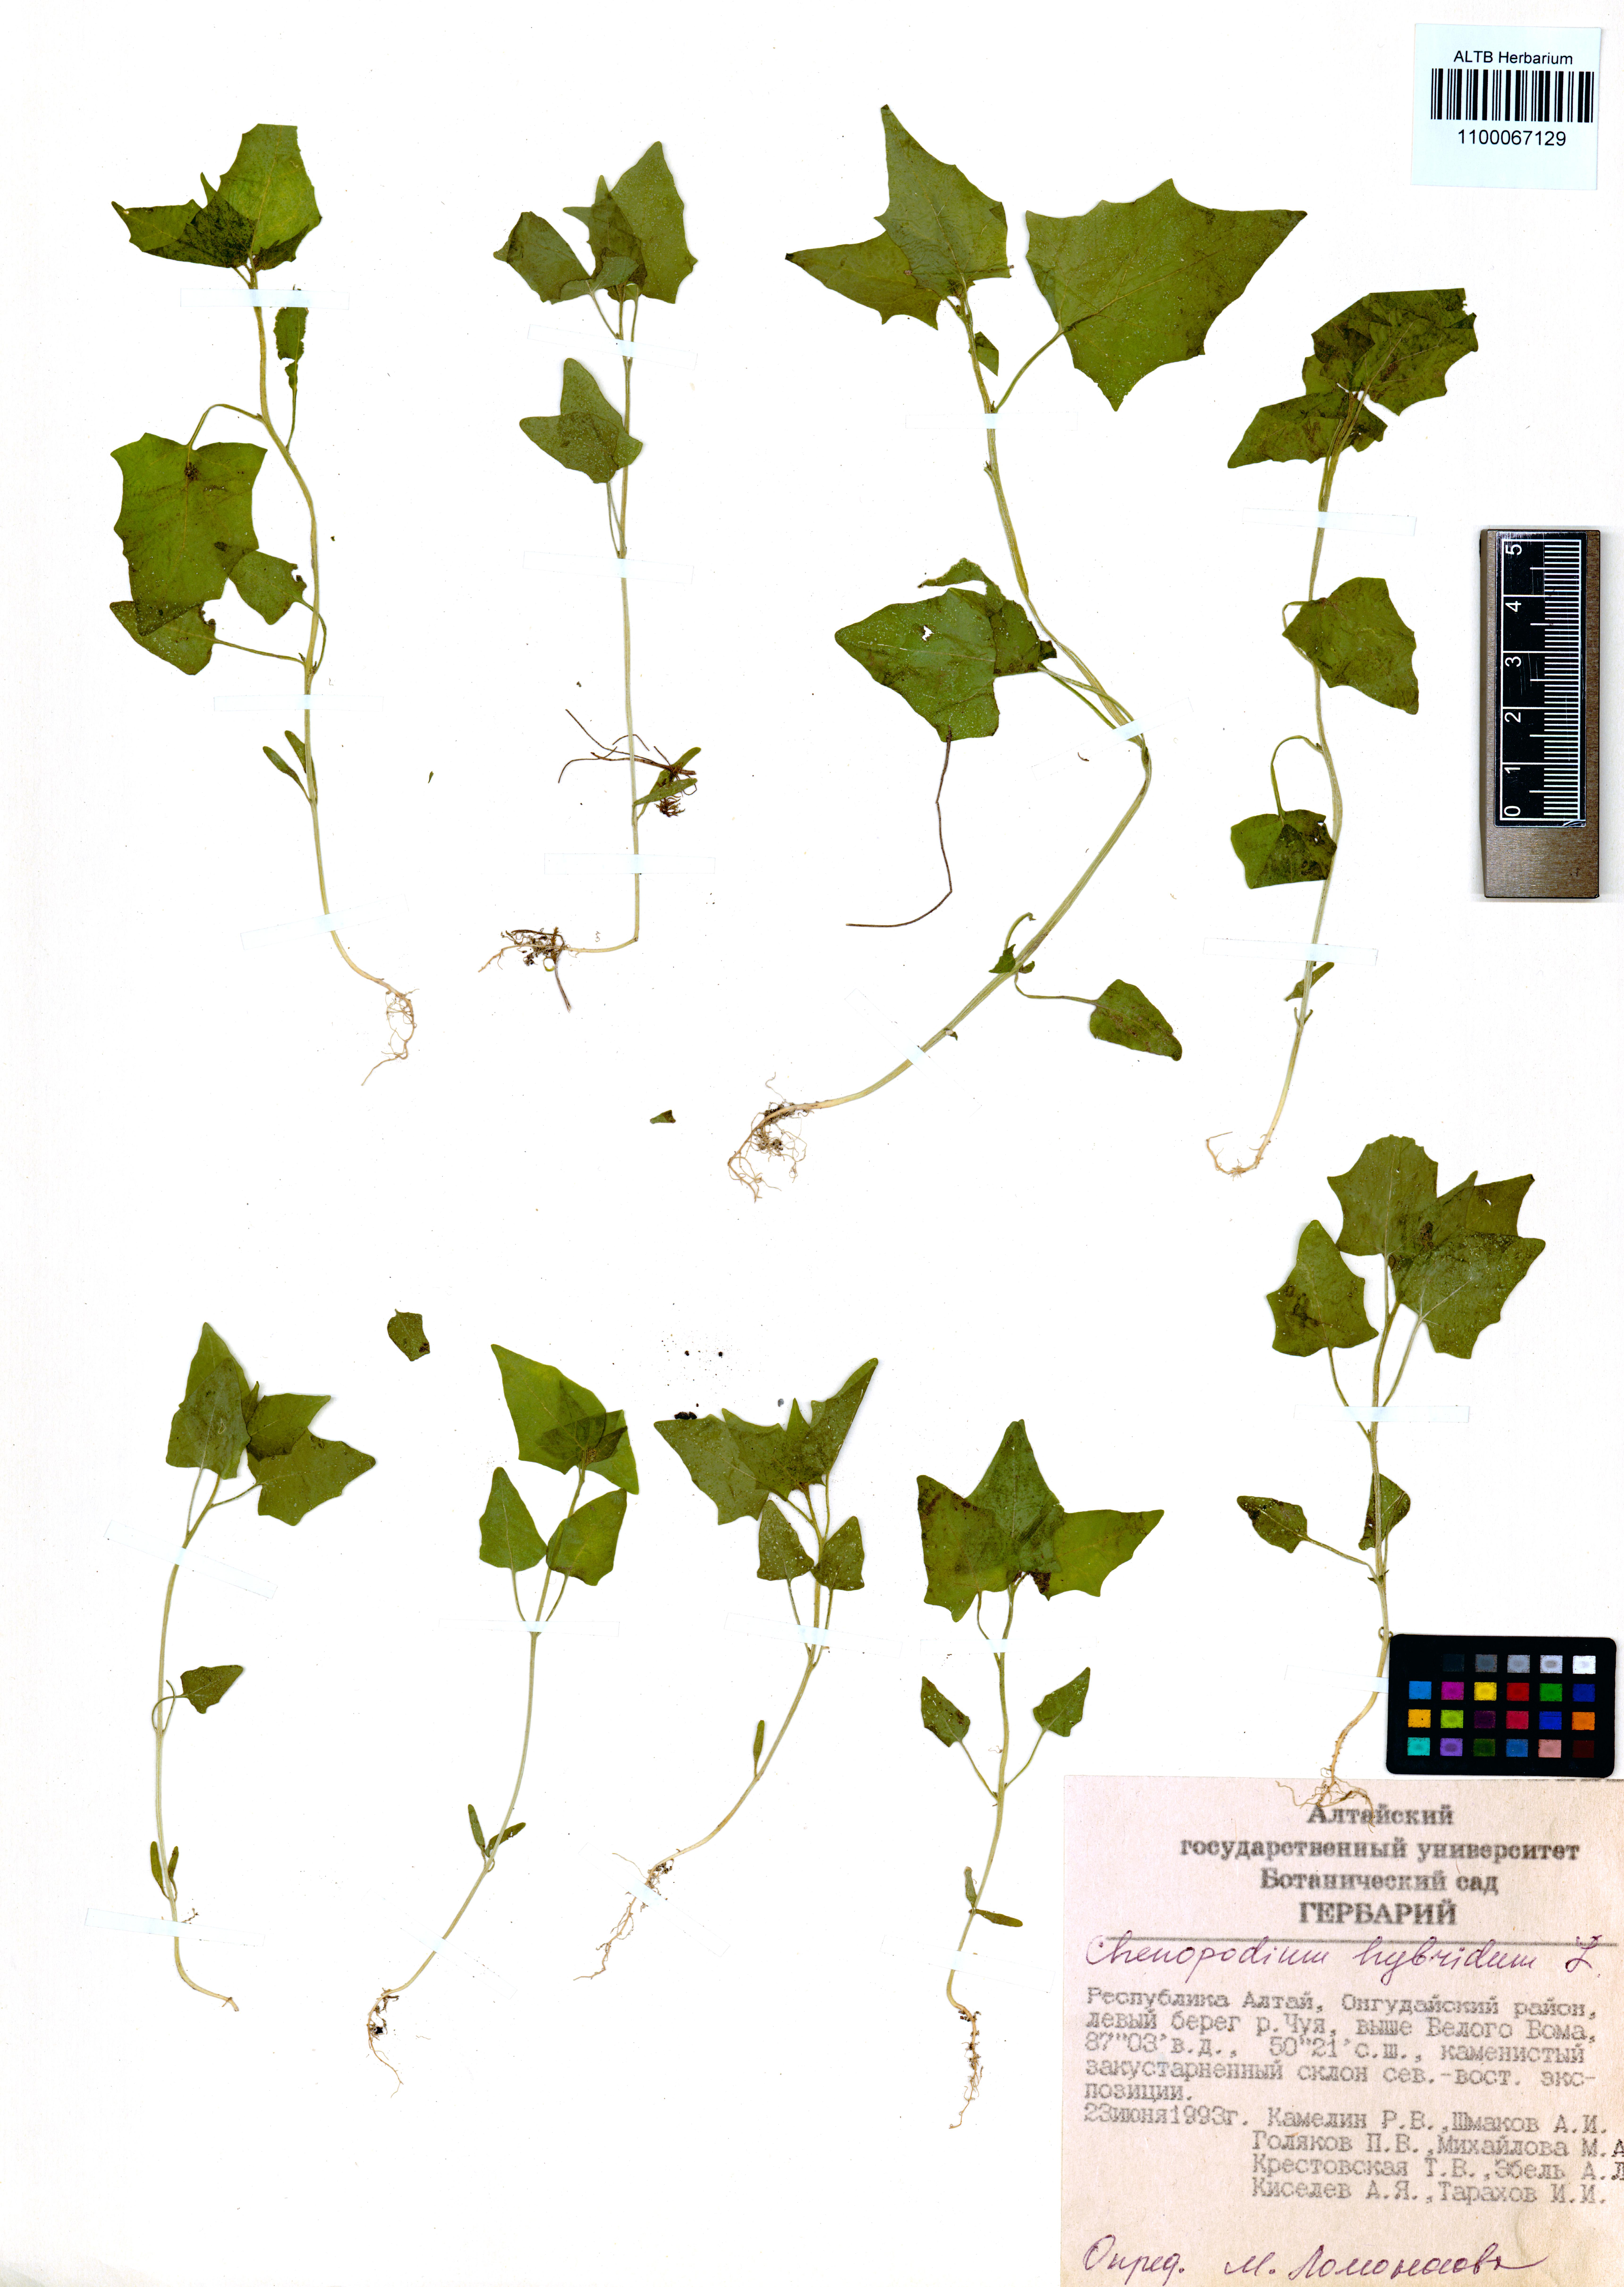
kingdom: Plantae
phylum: Tracheophyta
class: Magnoliopsida
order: Caryophyllales
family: Amaranthaceae
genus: Chenopodiastrum
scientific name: Chenopodiastrum hybridum
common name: Mapleleaf goosefoot
